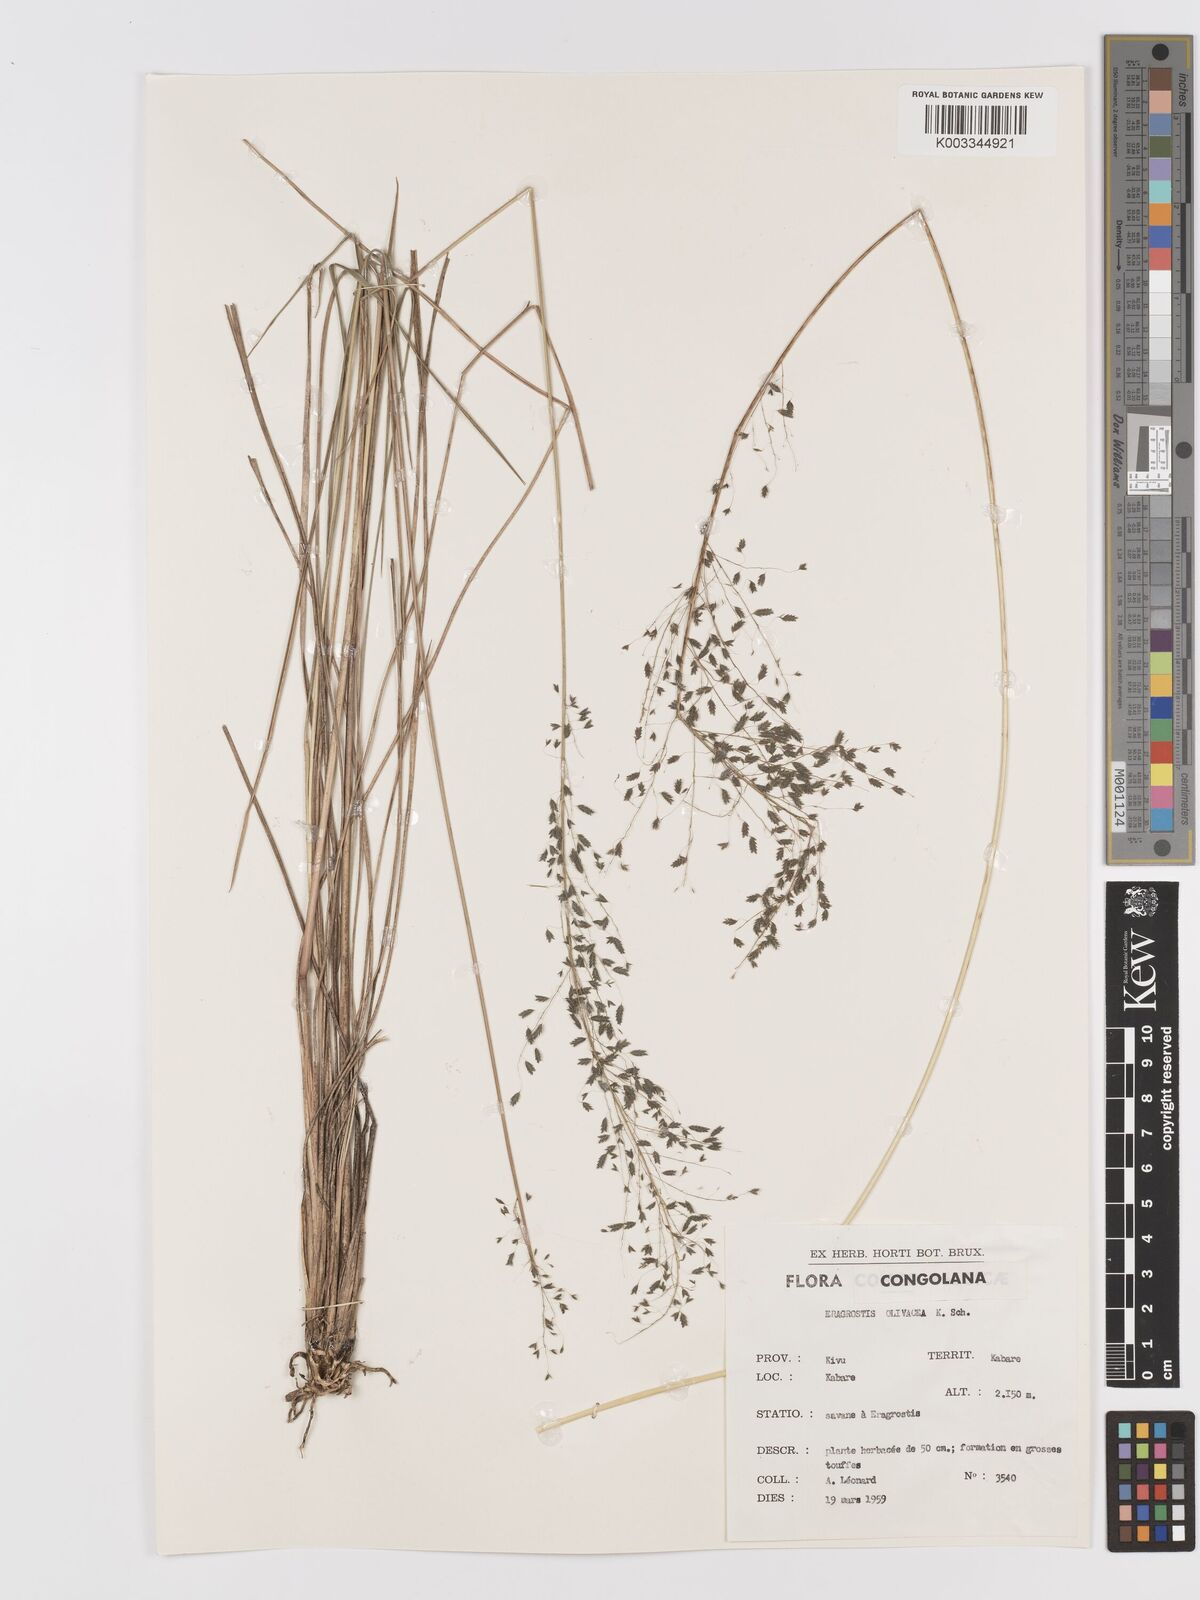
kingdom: Plantae
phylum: Tracheophyta
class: Liliopsida
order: Poales
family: Poaceae
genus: Eragrostis
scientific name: Eragrostis olivacea
